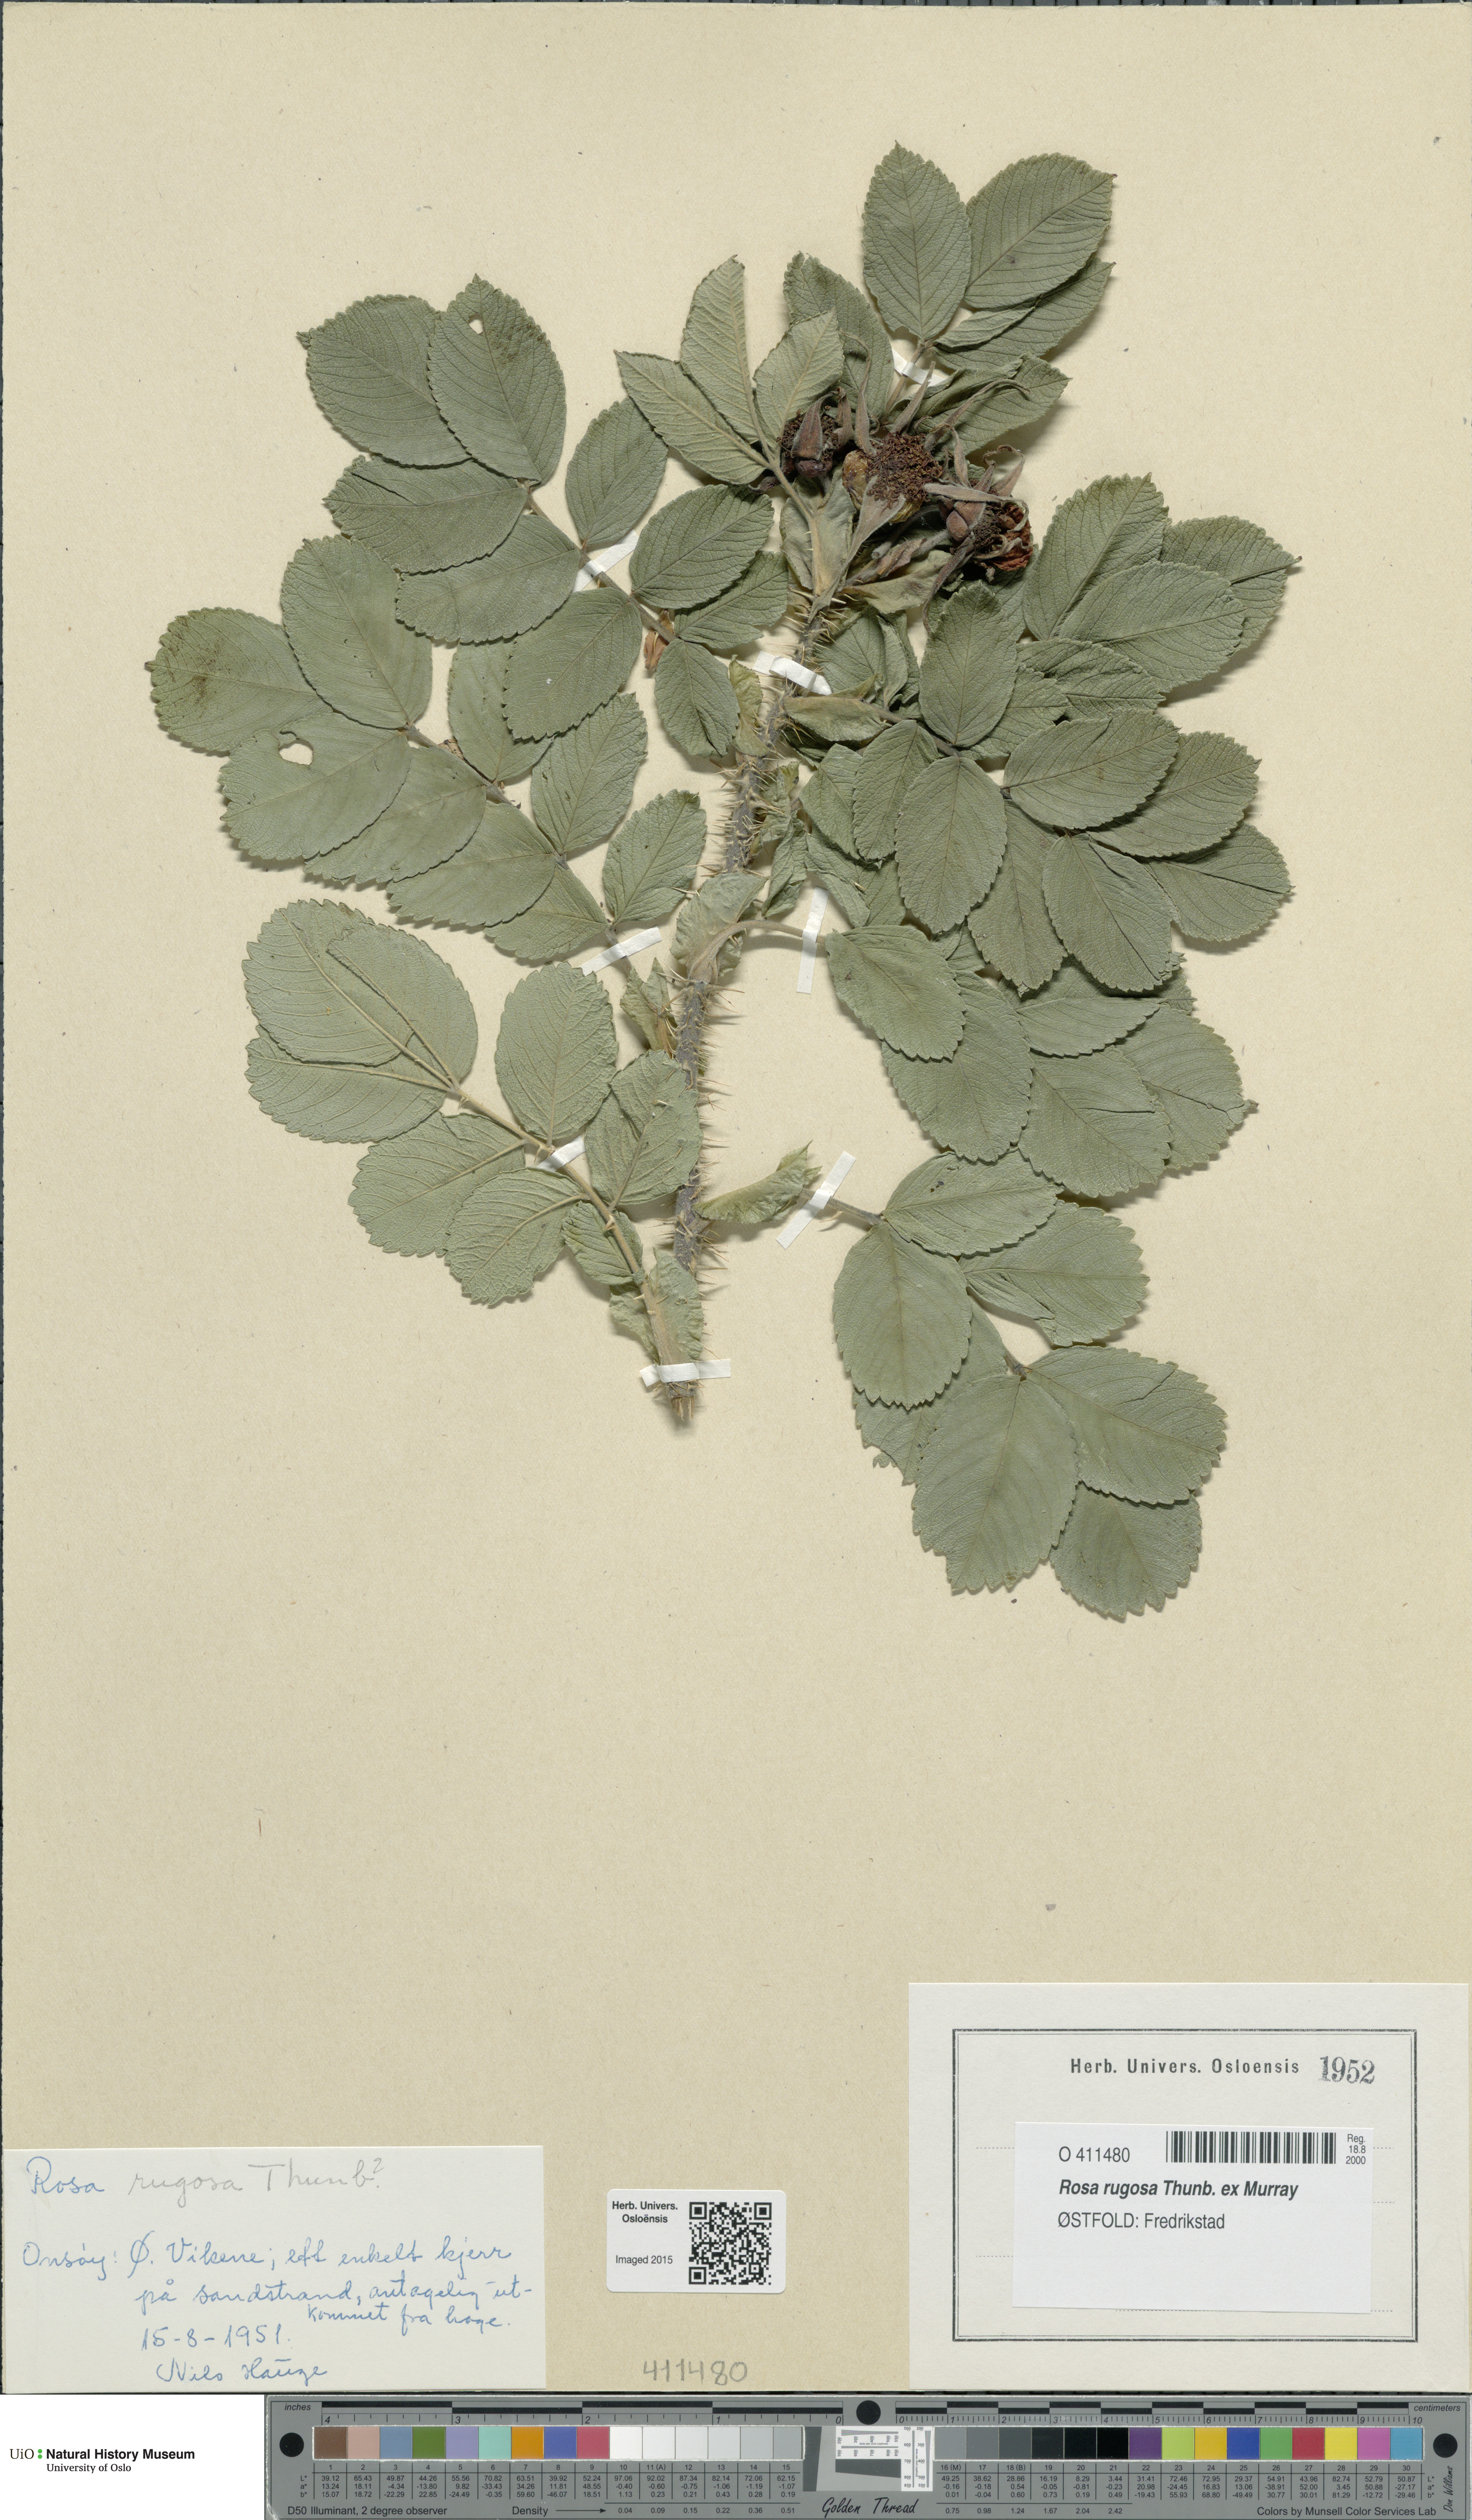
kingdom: Plantae
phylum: Tracheophyta
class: Magnoliopsida
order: Rosales
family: Rosaceae
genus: Rosa
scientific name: Rosa rugosa
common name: Japanese rose
